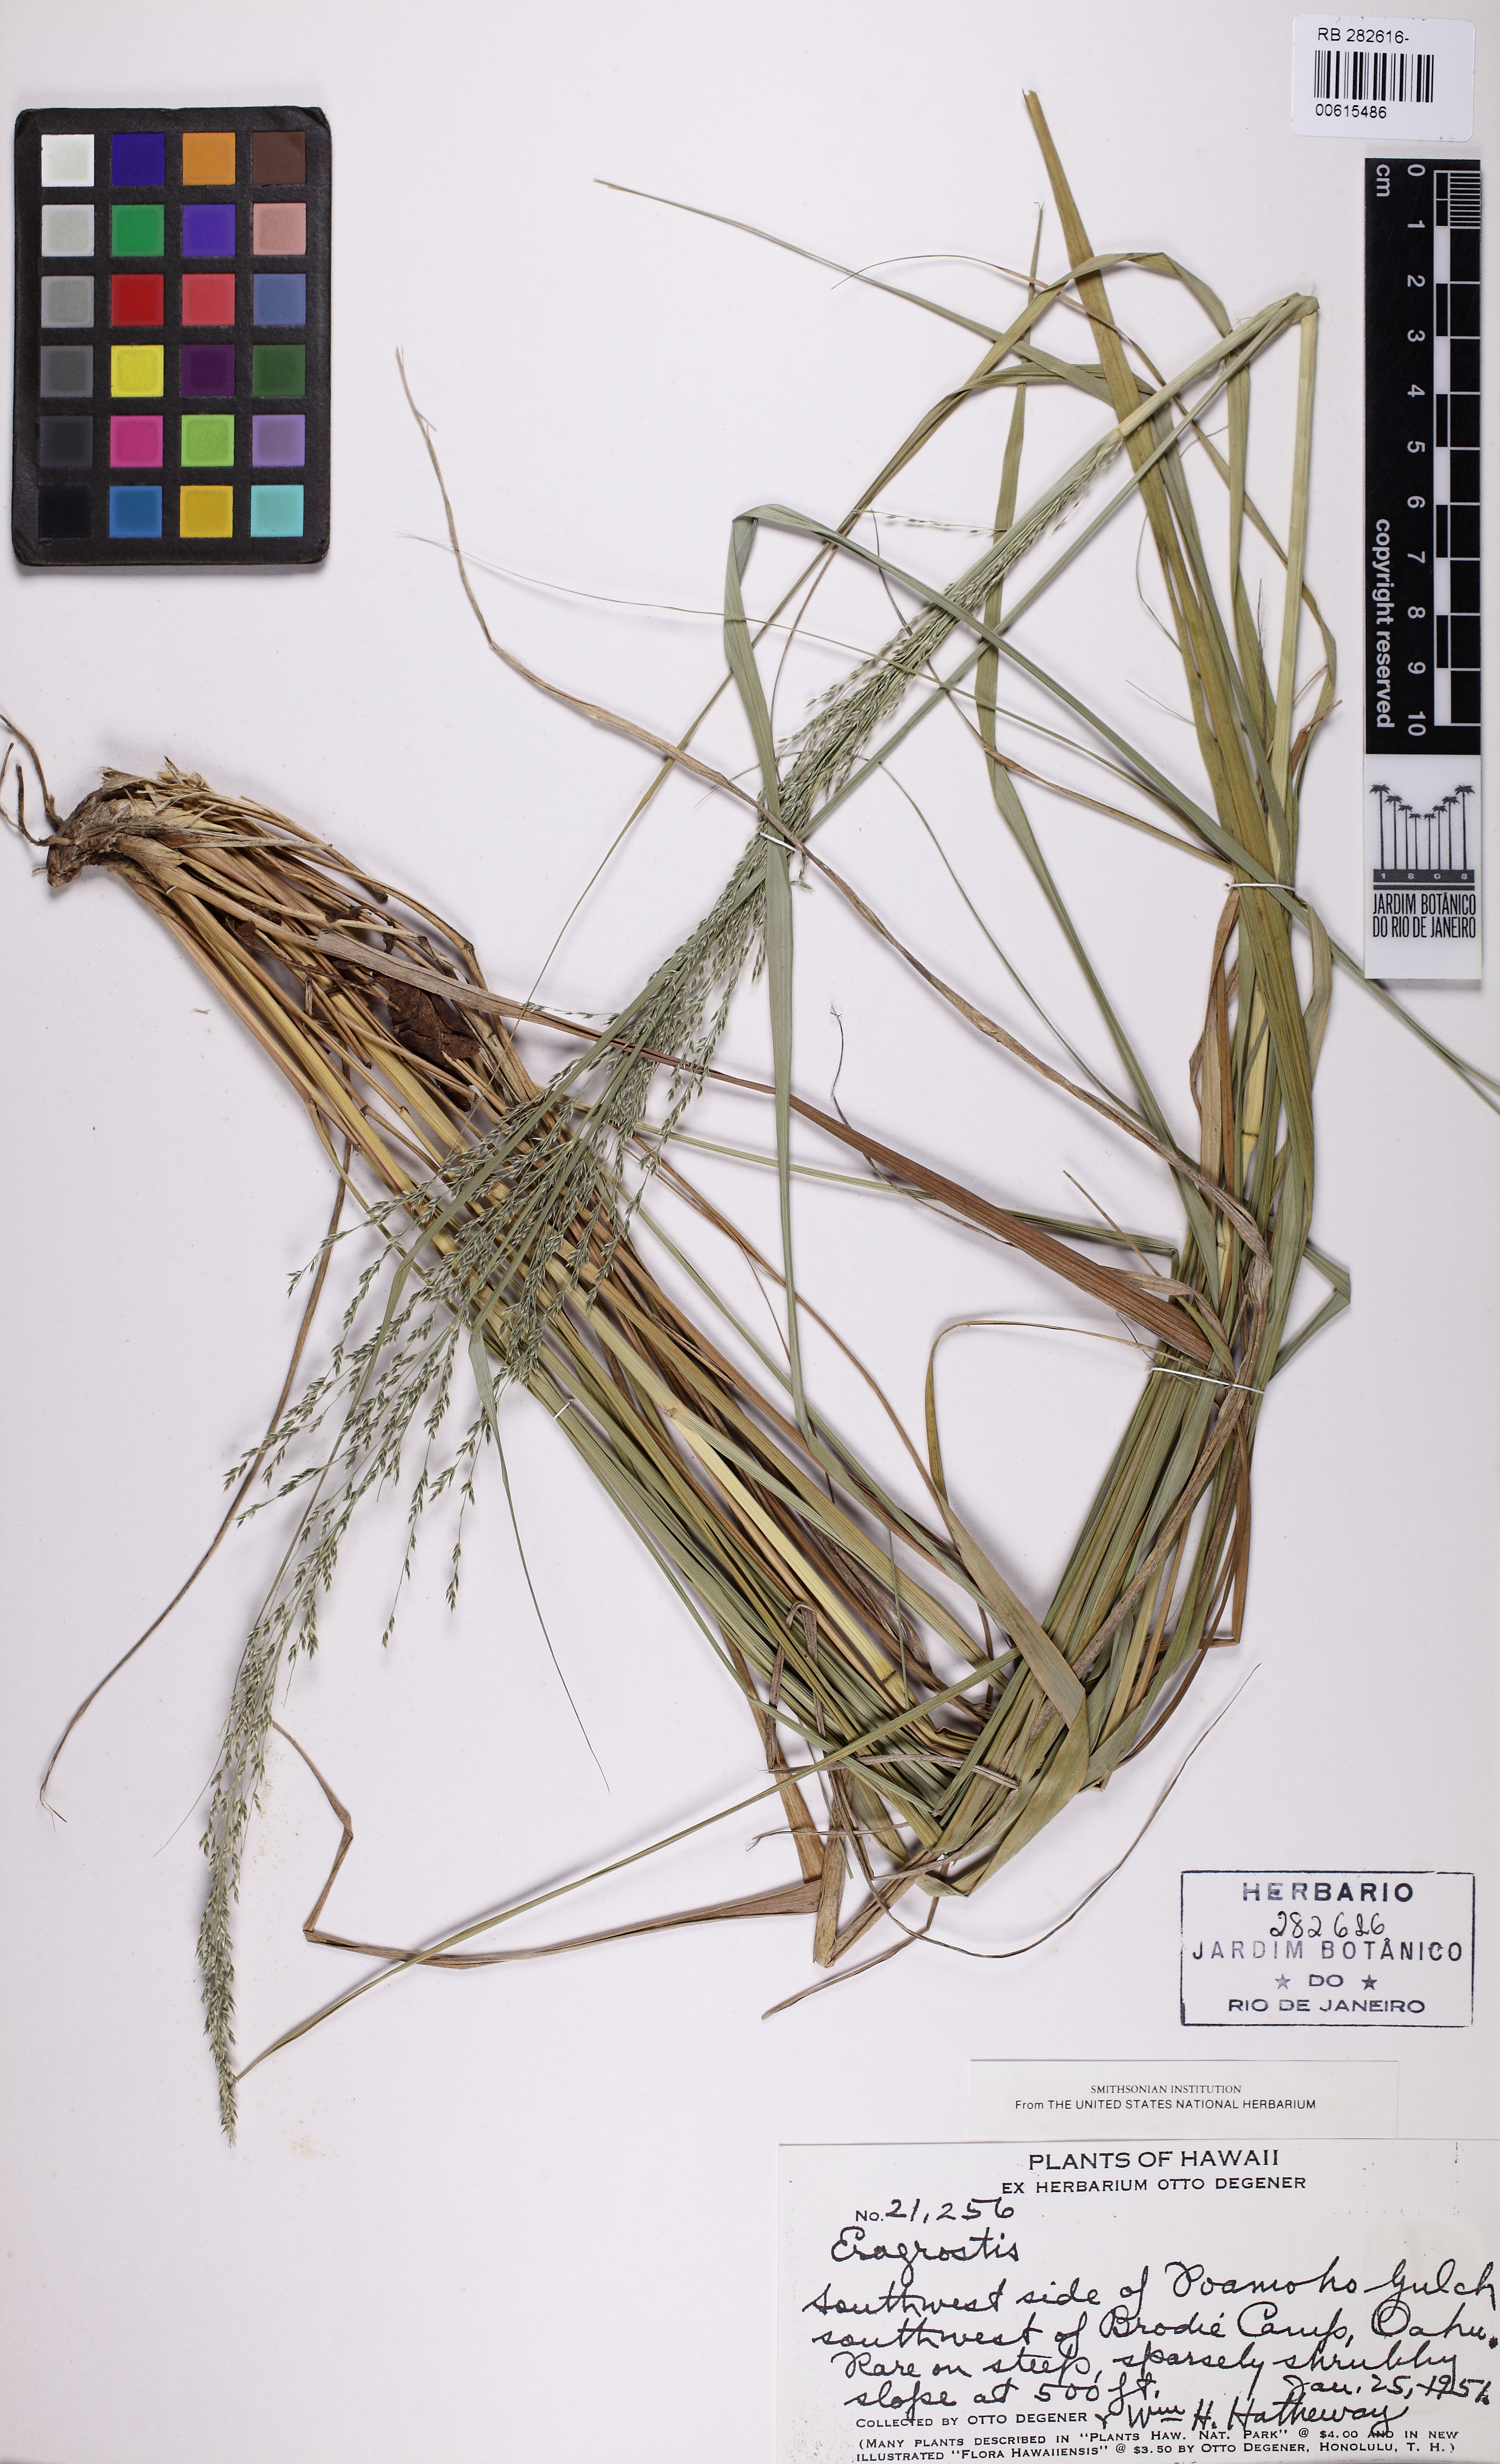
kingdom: Plantae
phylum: Tracheophyta
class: Liliopsida
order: Poales
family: Poaceae
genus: Eragrostis
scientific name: Eragrostis
